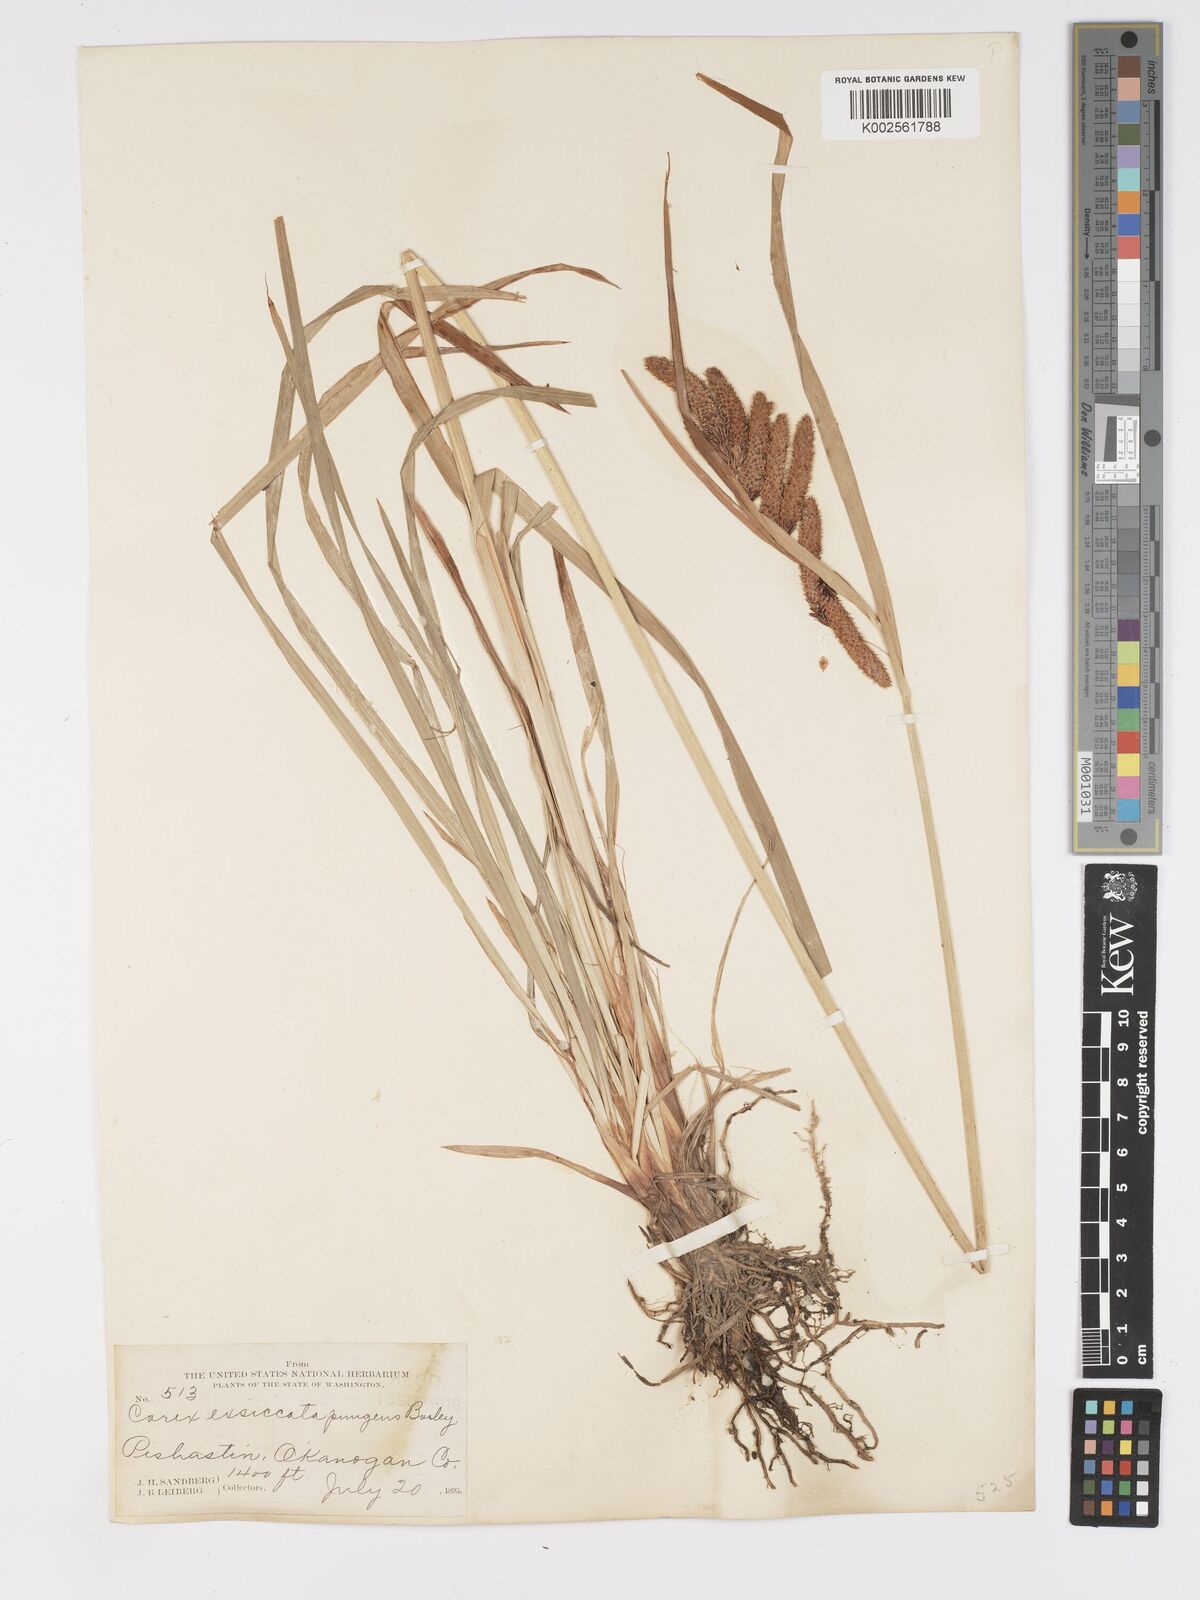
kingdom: Plantae
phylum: Tracheophyta
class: Liliopsida
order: Poales
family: Cyperaceae
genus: Carex
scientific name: Carex mertensii
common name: Mertens' sedge
